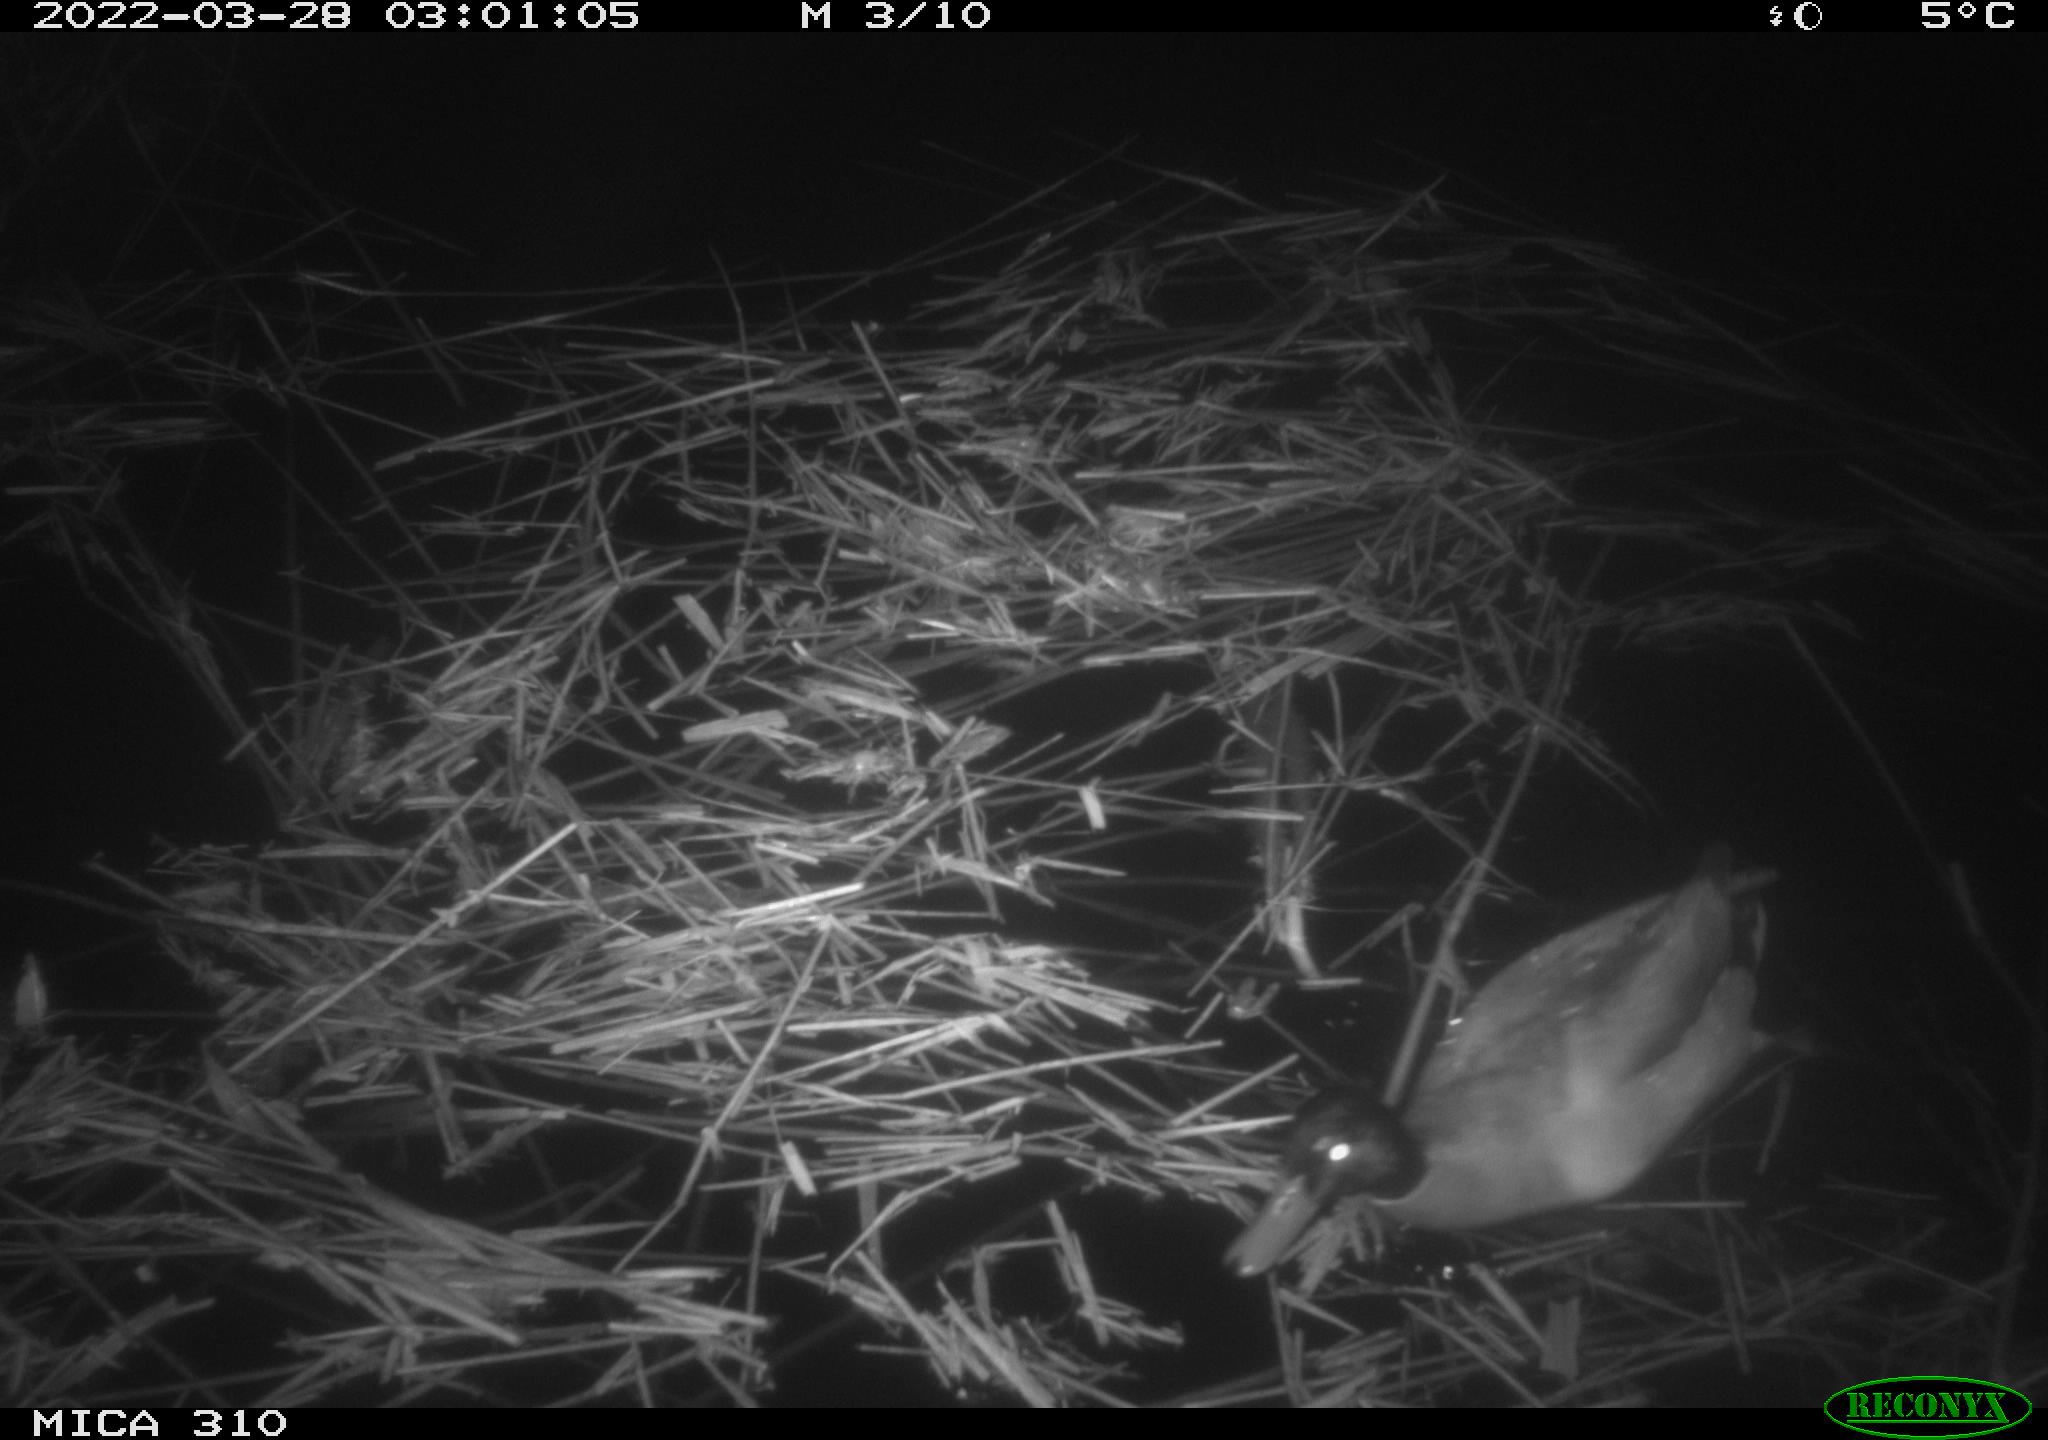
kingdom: Animalia
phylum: Chordata
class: Aves
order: Gruiformes
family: Rallidae
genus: Gallinula
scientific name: Gallinula chloropus
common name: Common moorhen
